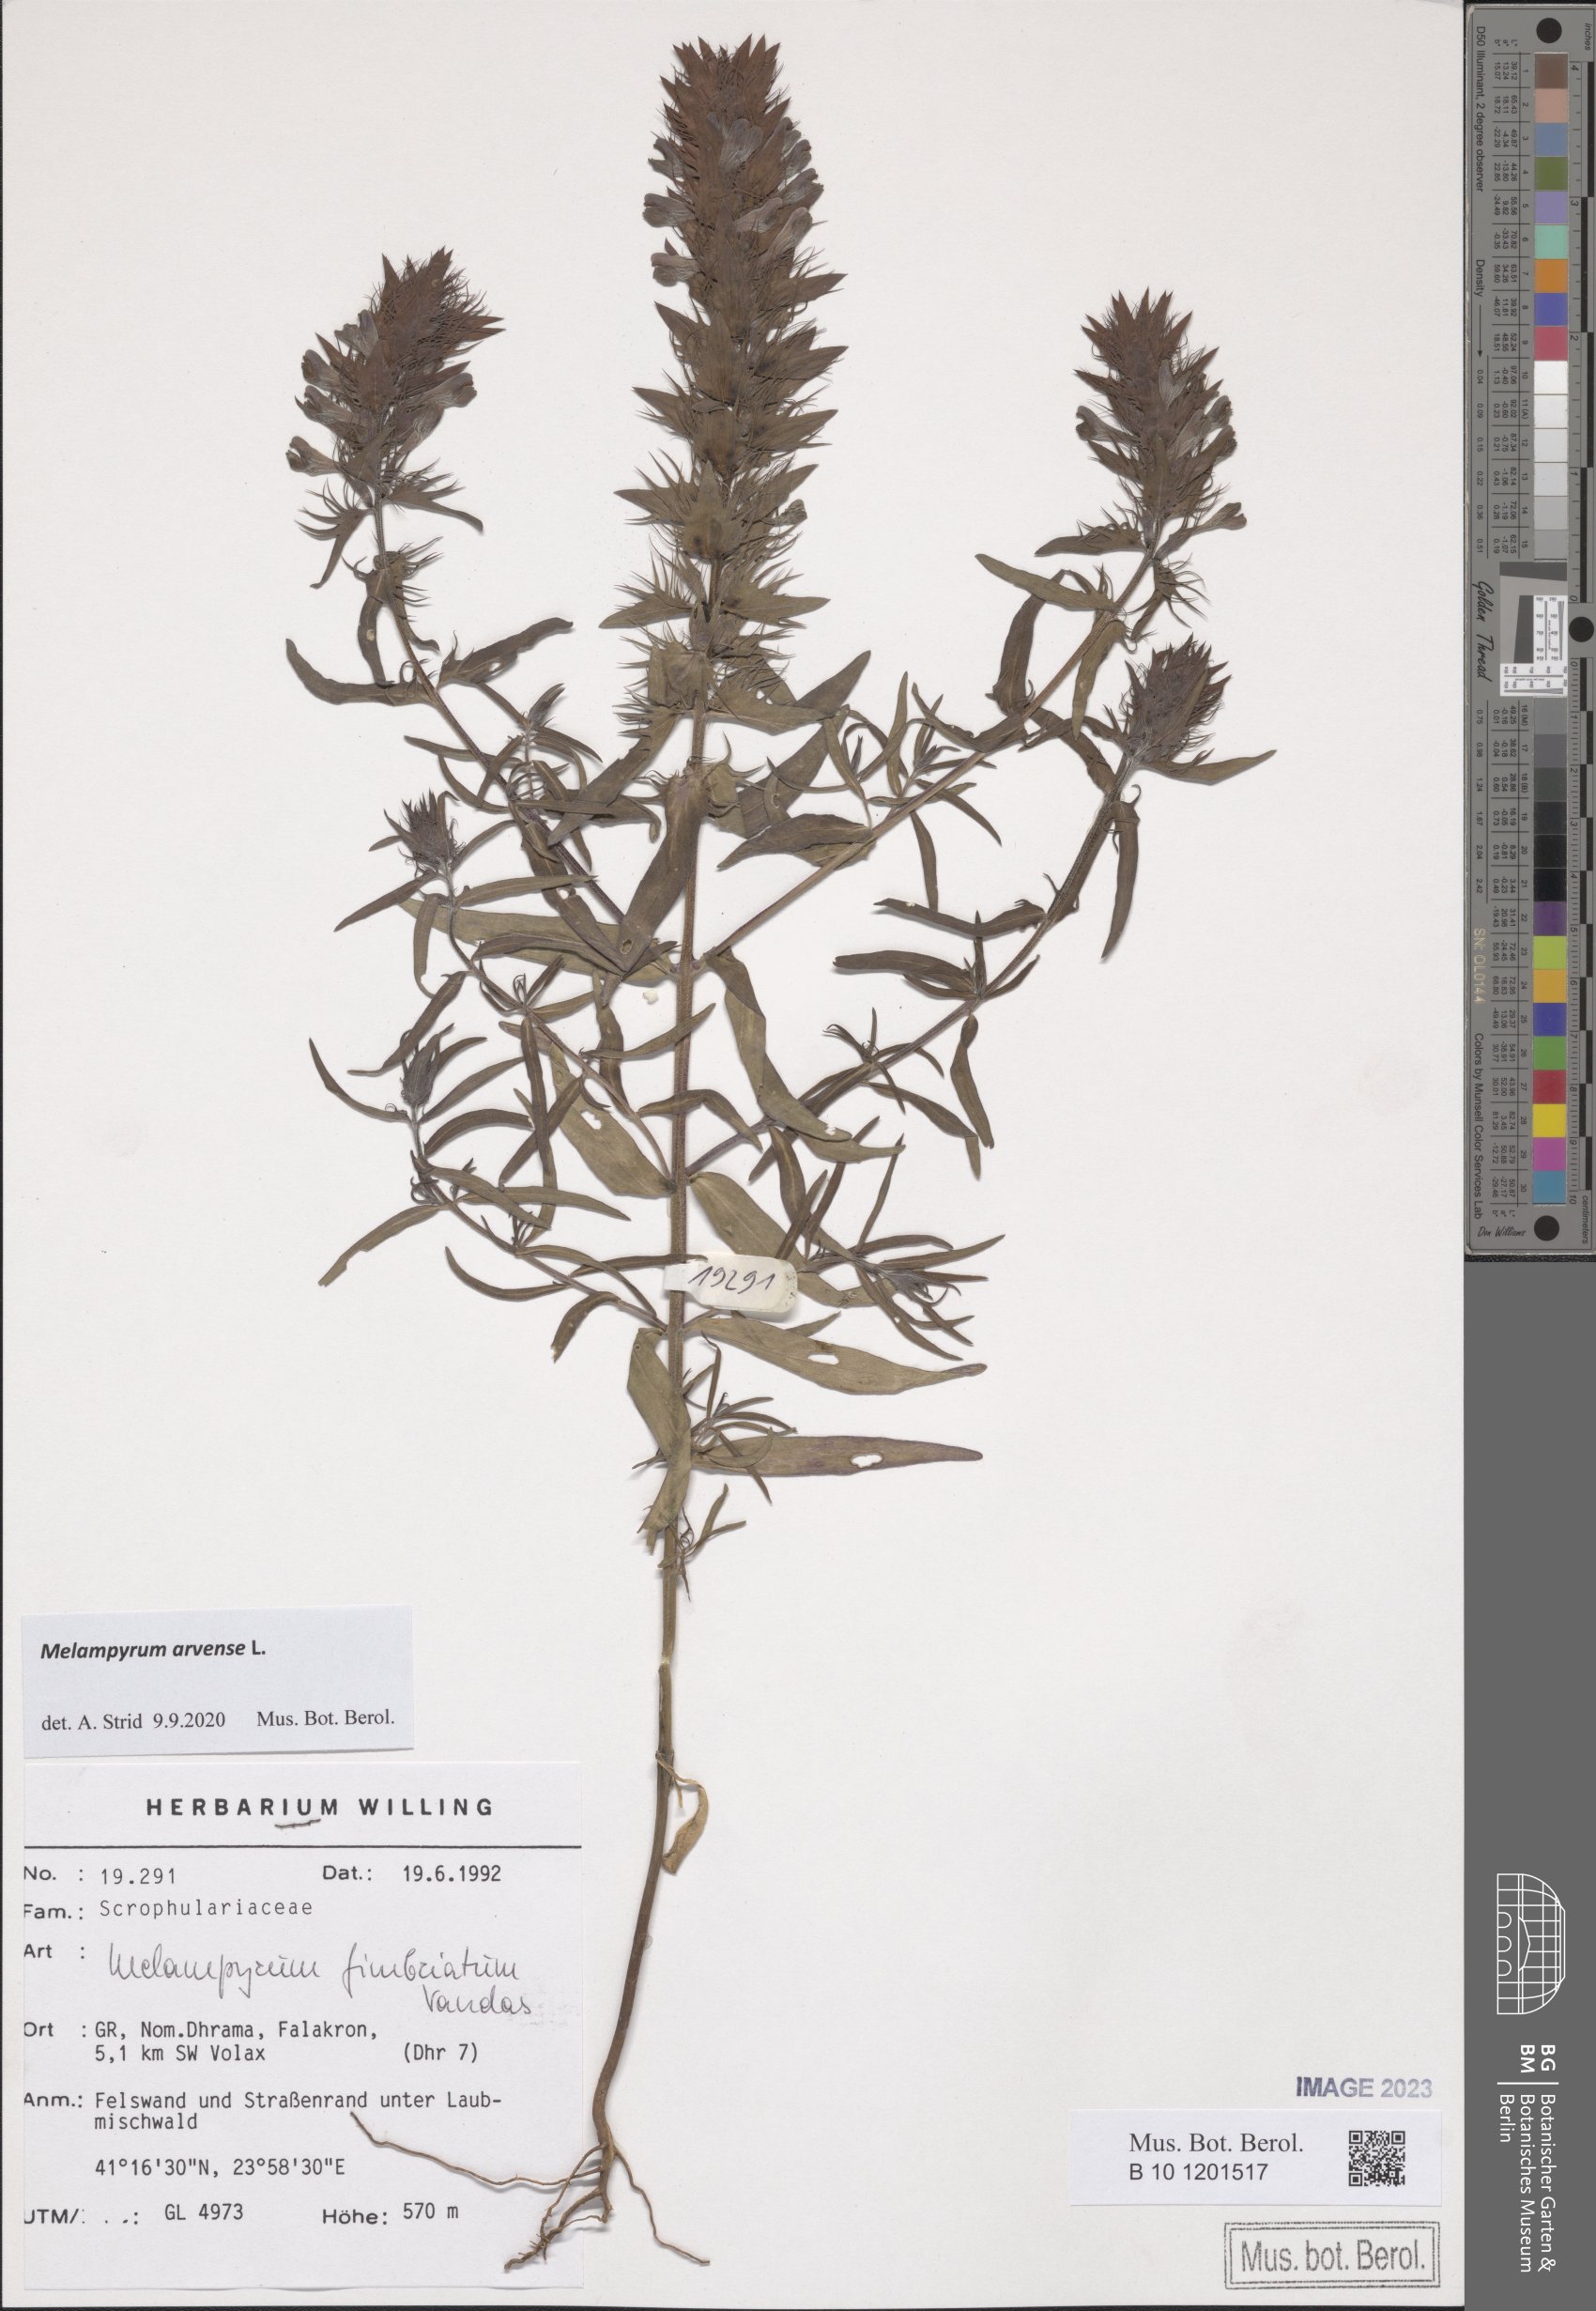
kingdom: Plantae
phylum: Tracheophyta
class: Magnoliopsida
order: Lamiales
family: Orobanchaceae
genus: Melampyrum
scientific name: Melampyrum arvense
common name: Field cow-wheat
